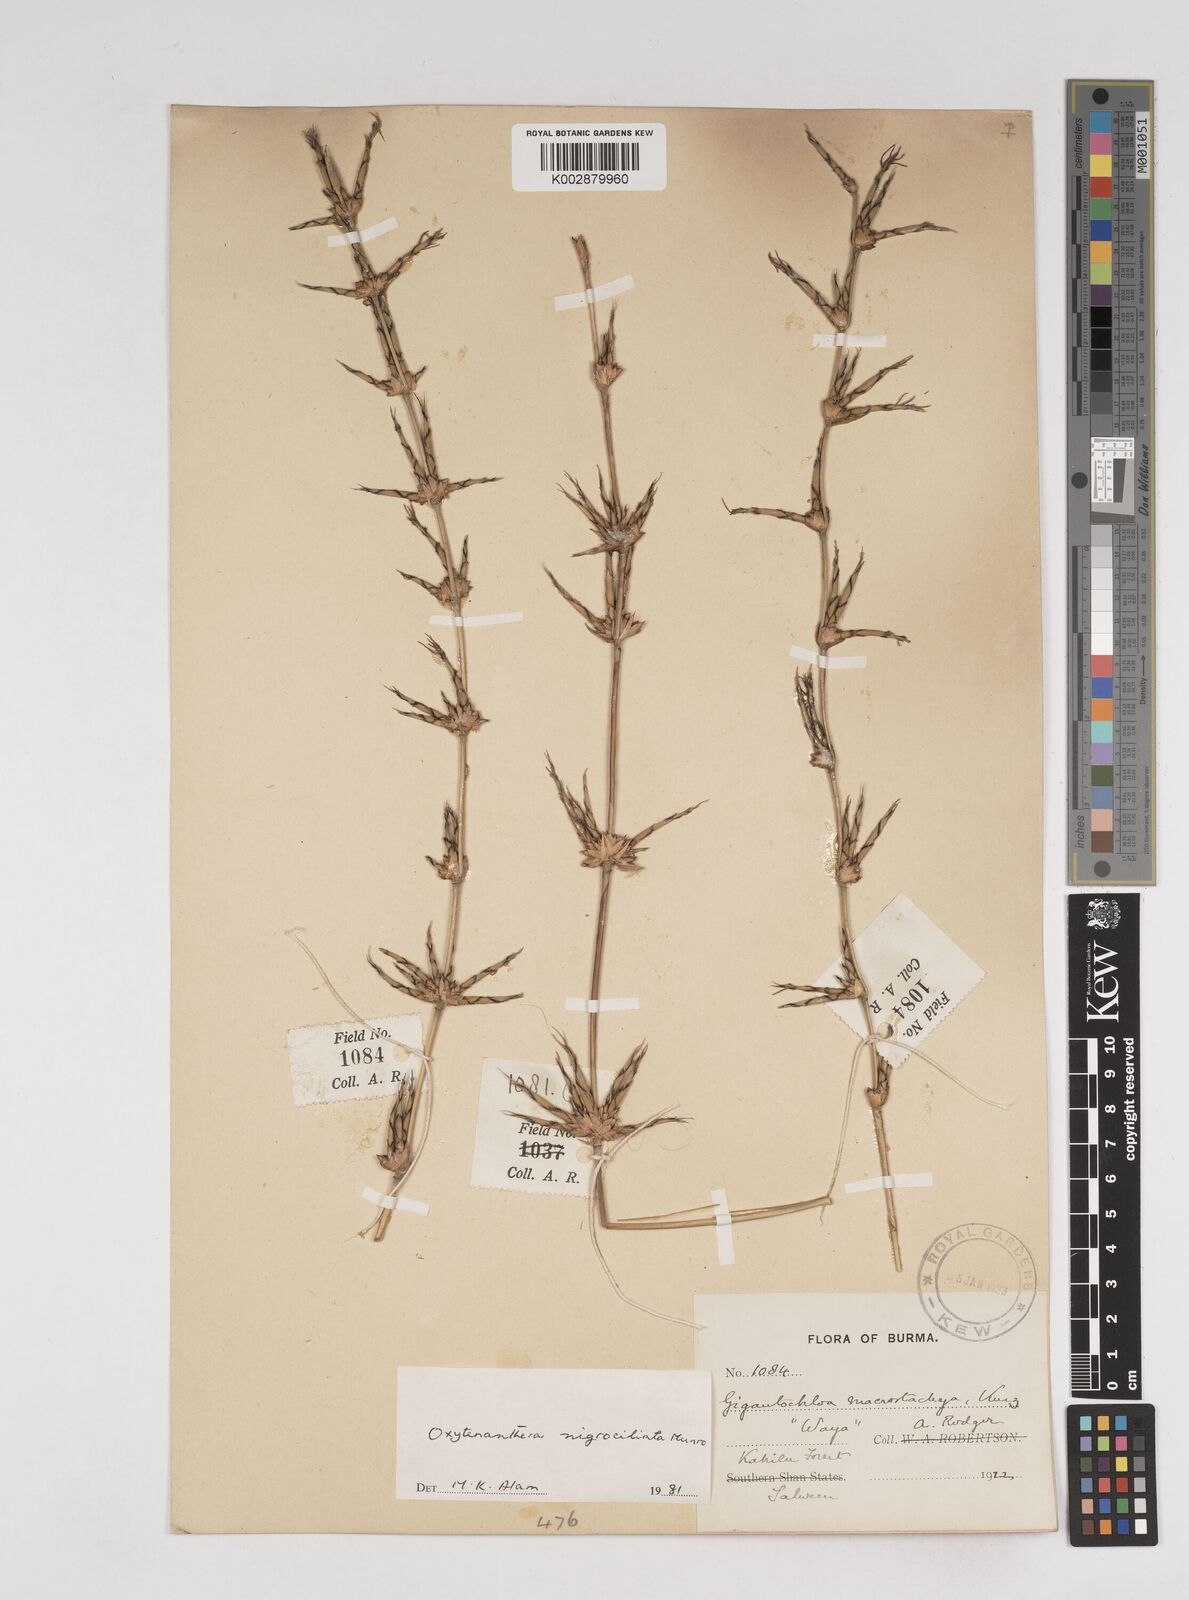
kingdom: Plantae
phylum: Tracheophyta
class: Liliopsida
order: Poales
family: Poaceae
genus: Gigantochloa
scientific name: Gigantochloa nigrociliata
